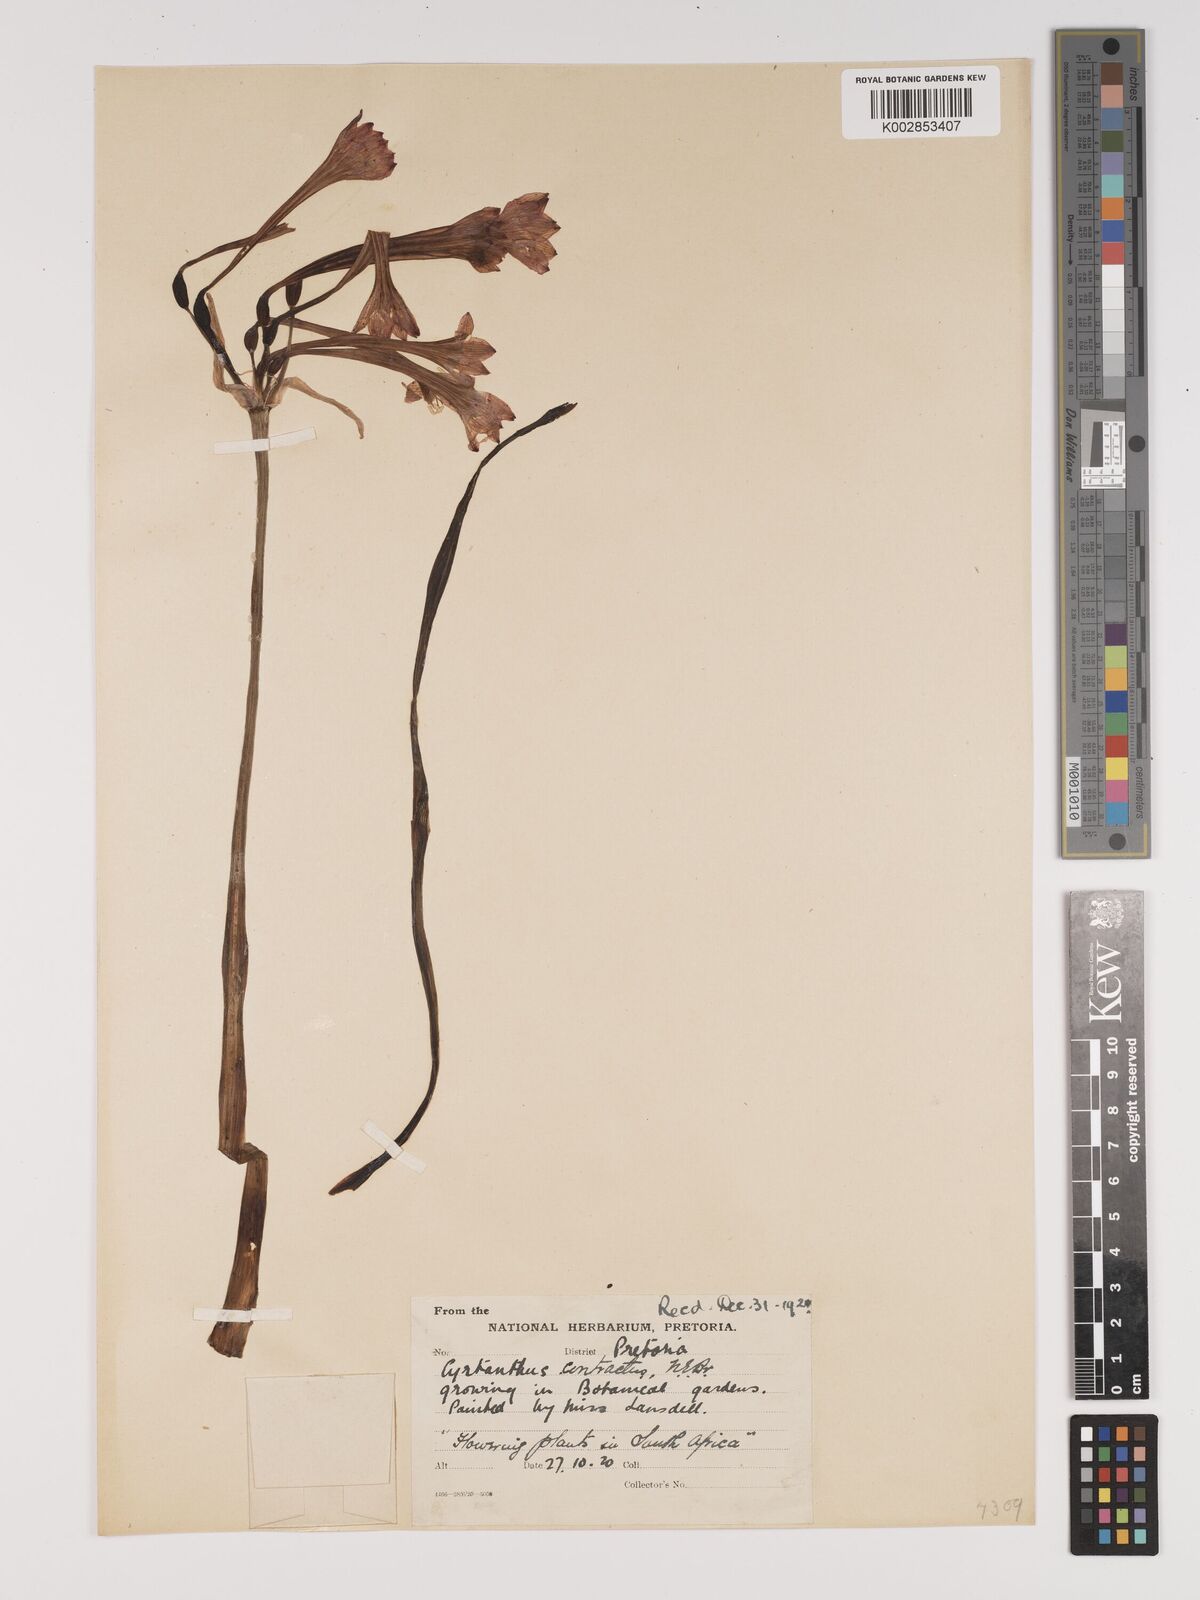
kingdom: Plantae
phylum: Tracheophyta
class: Liliopsida
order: Asparagales
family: Amaryllidaceae
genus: Cyrtanthus
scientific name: Cyrtanthus contractus
